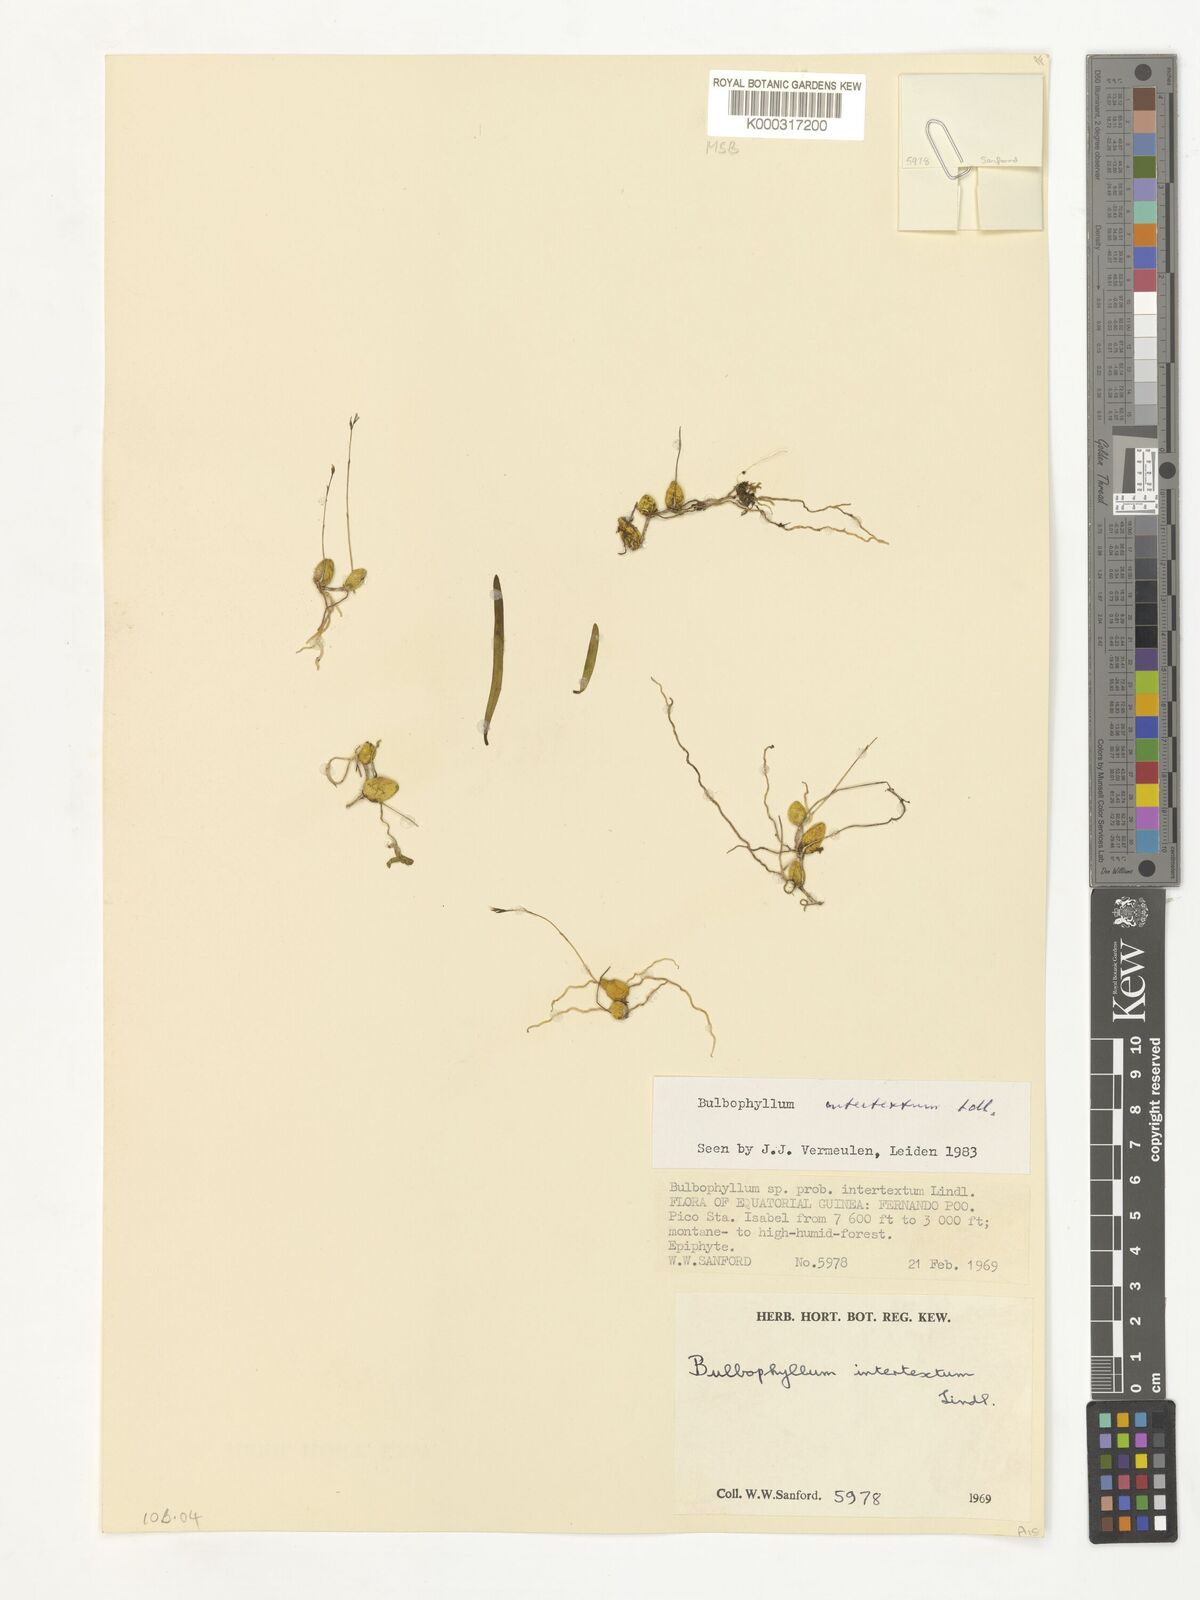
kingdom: Plantae
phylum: Tracheophyta
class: Liliopsida
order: Asparagales
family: Orchidaceae
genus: Bulbophyllum
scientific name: Bulbophyllum intertextum
